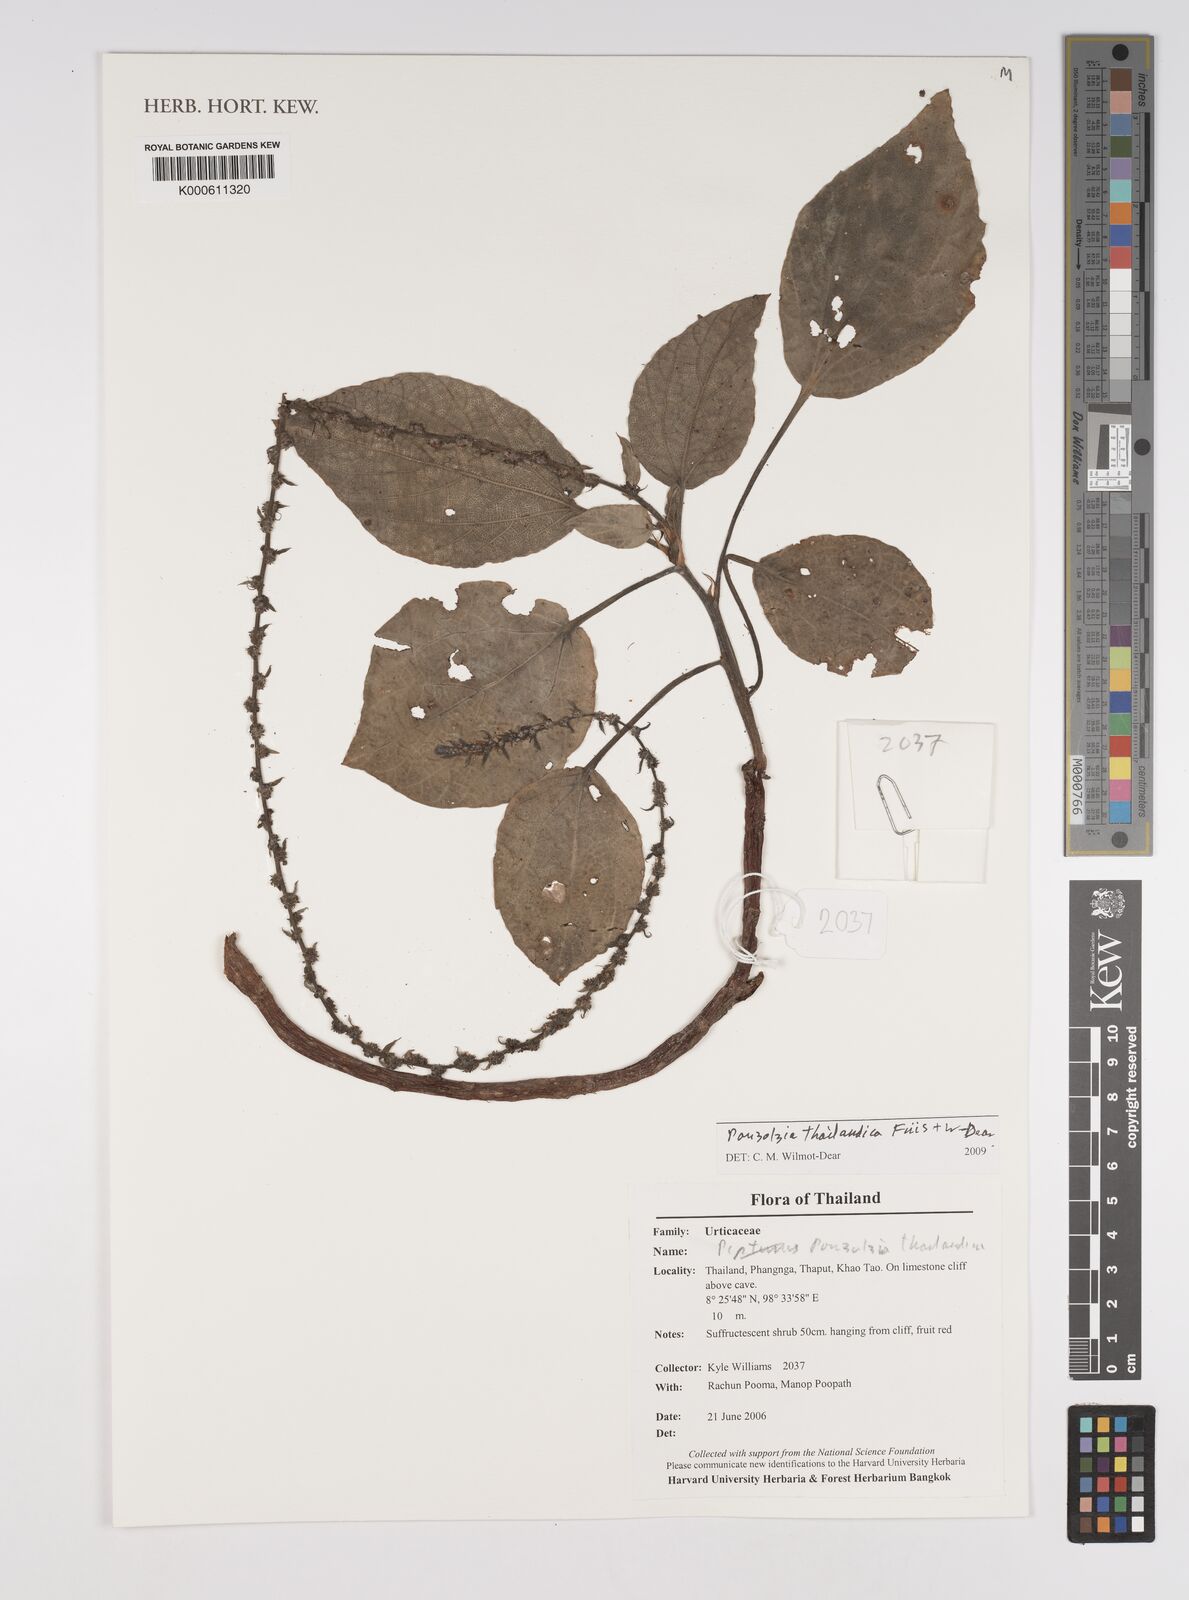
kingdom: Plantae
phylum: Tracheophyta
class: Magnoliopsida
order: Rosales
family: Urticaceae
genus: Pouzolzia
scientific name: Pouzolzia
